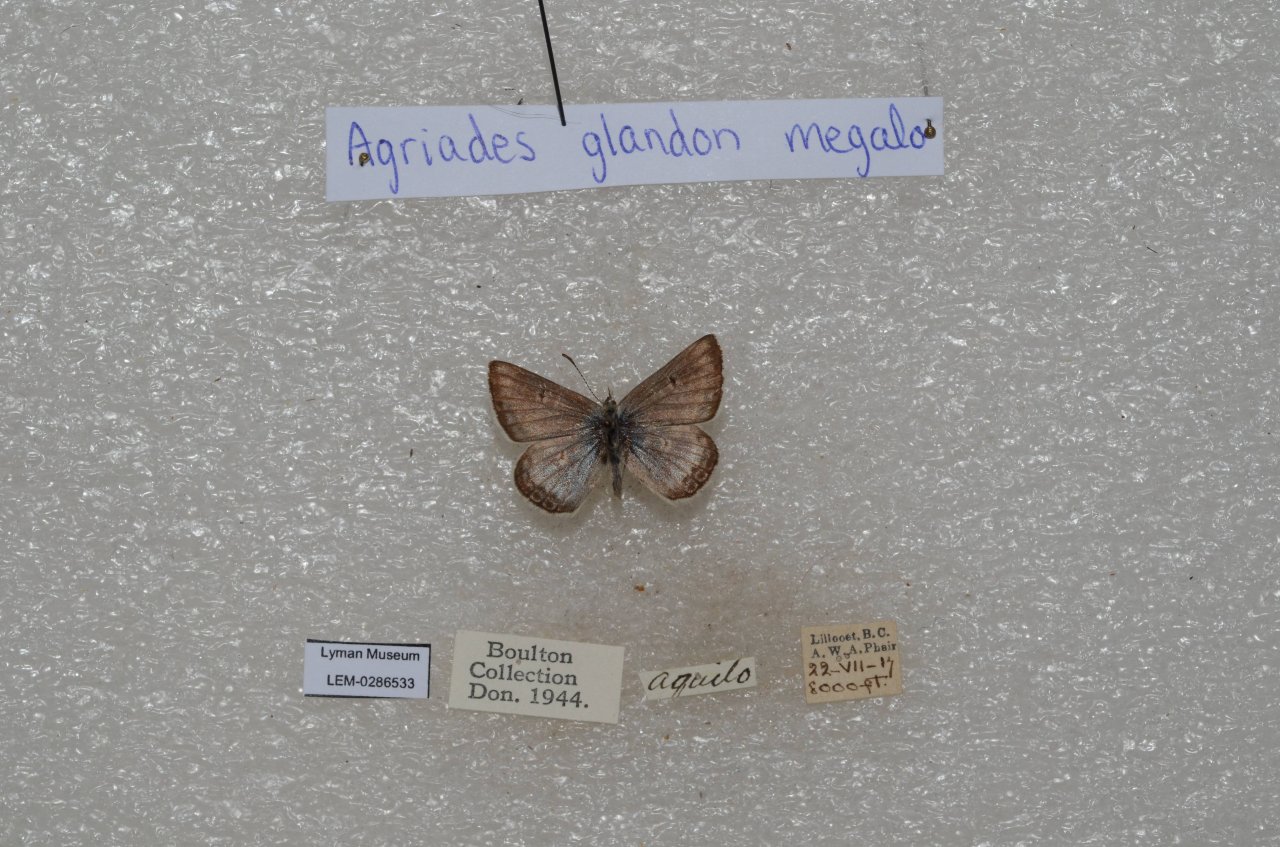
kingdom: Animalia
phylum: Arthropoda
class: Insecta
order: Lepidoptera
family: Lycaenidae
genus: Agriades
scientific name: Agriades glandon
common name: Arctic Blue
